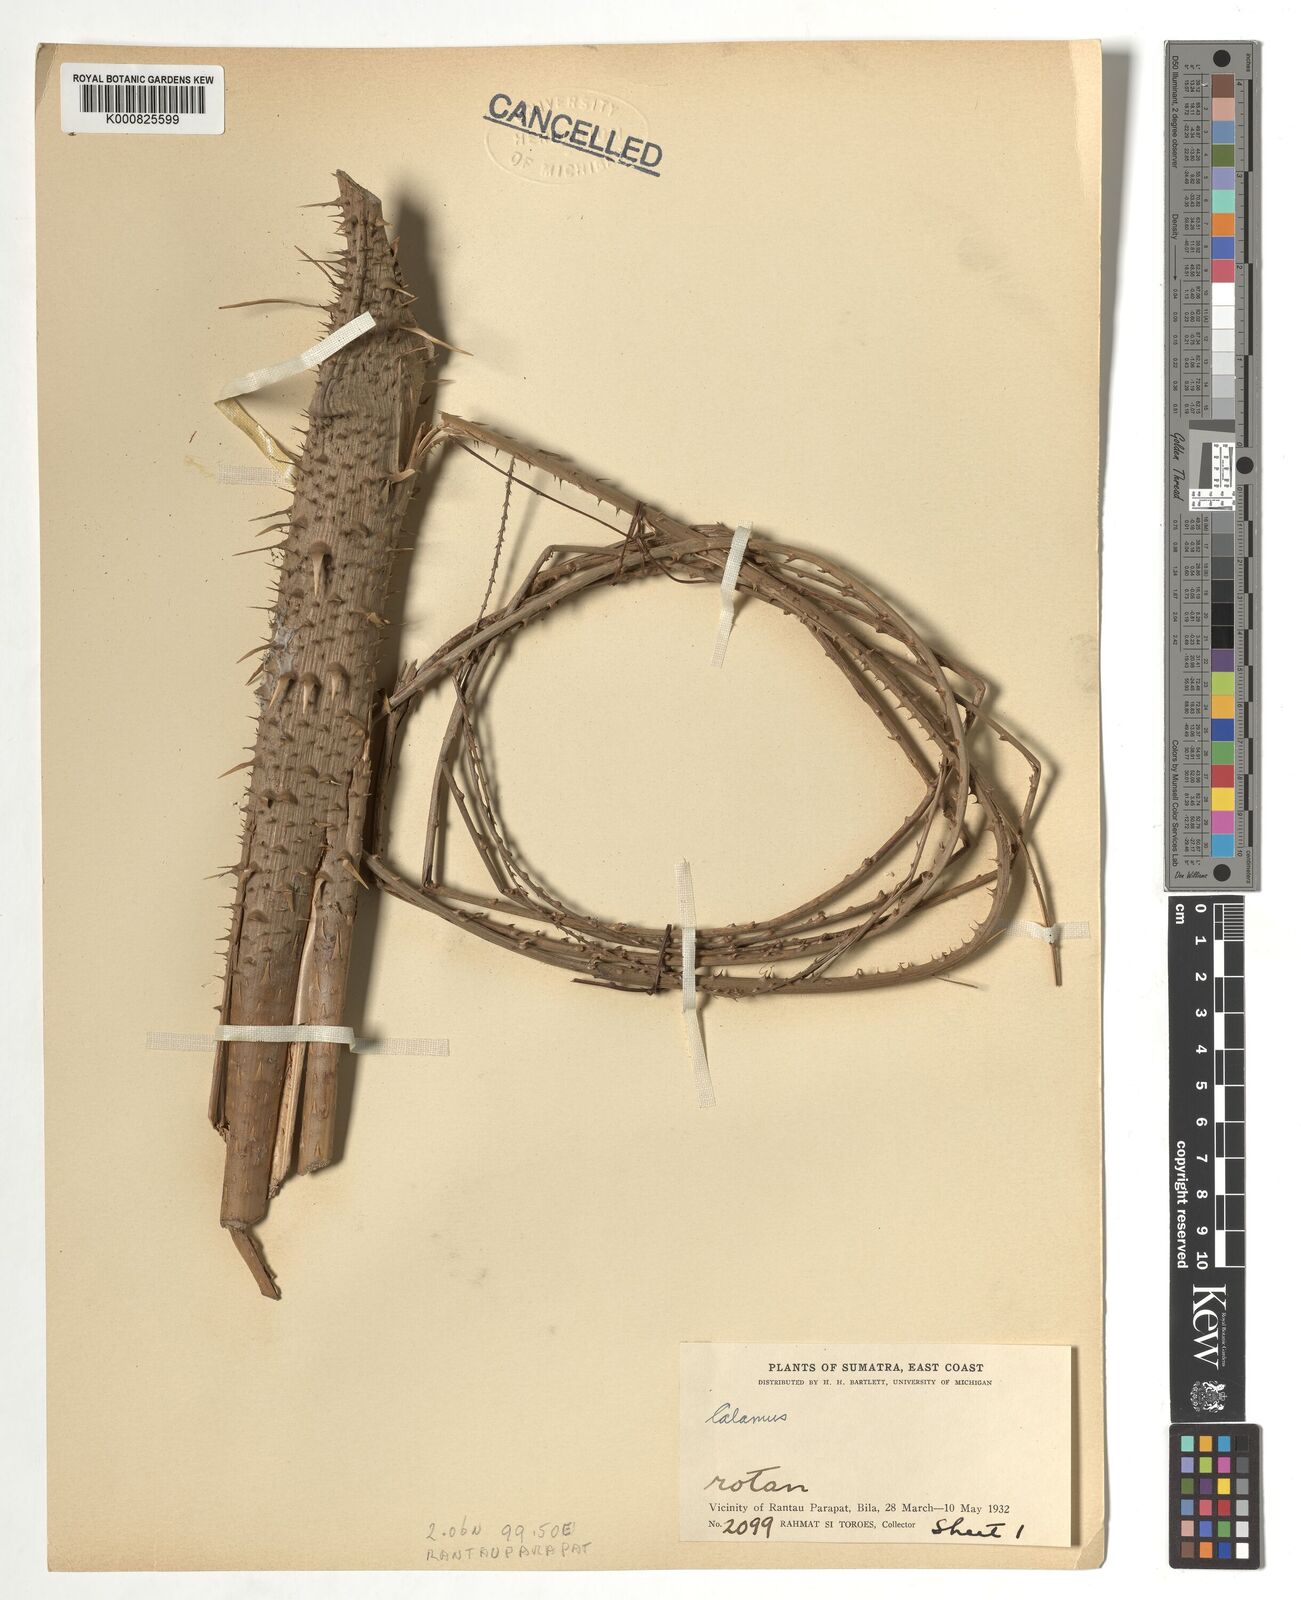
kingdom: Plantae
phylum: Tracheophyta
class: Liliopsida
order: Arecales
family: Arecaceae
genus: Calamus
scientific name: Calamus
